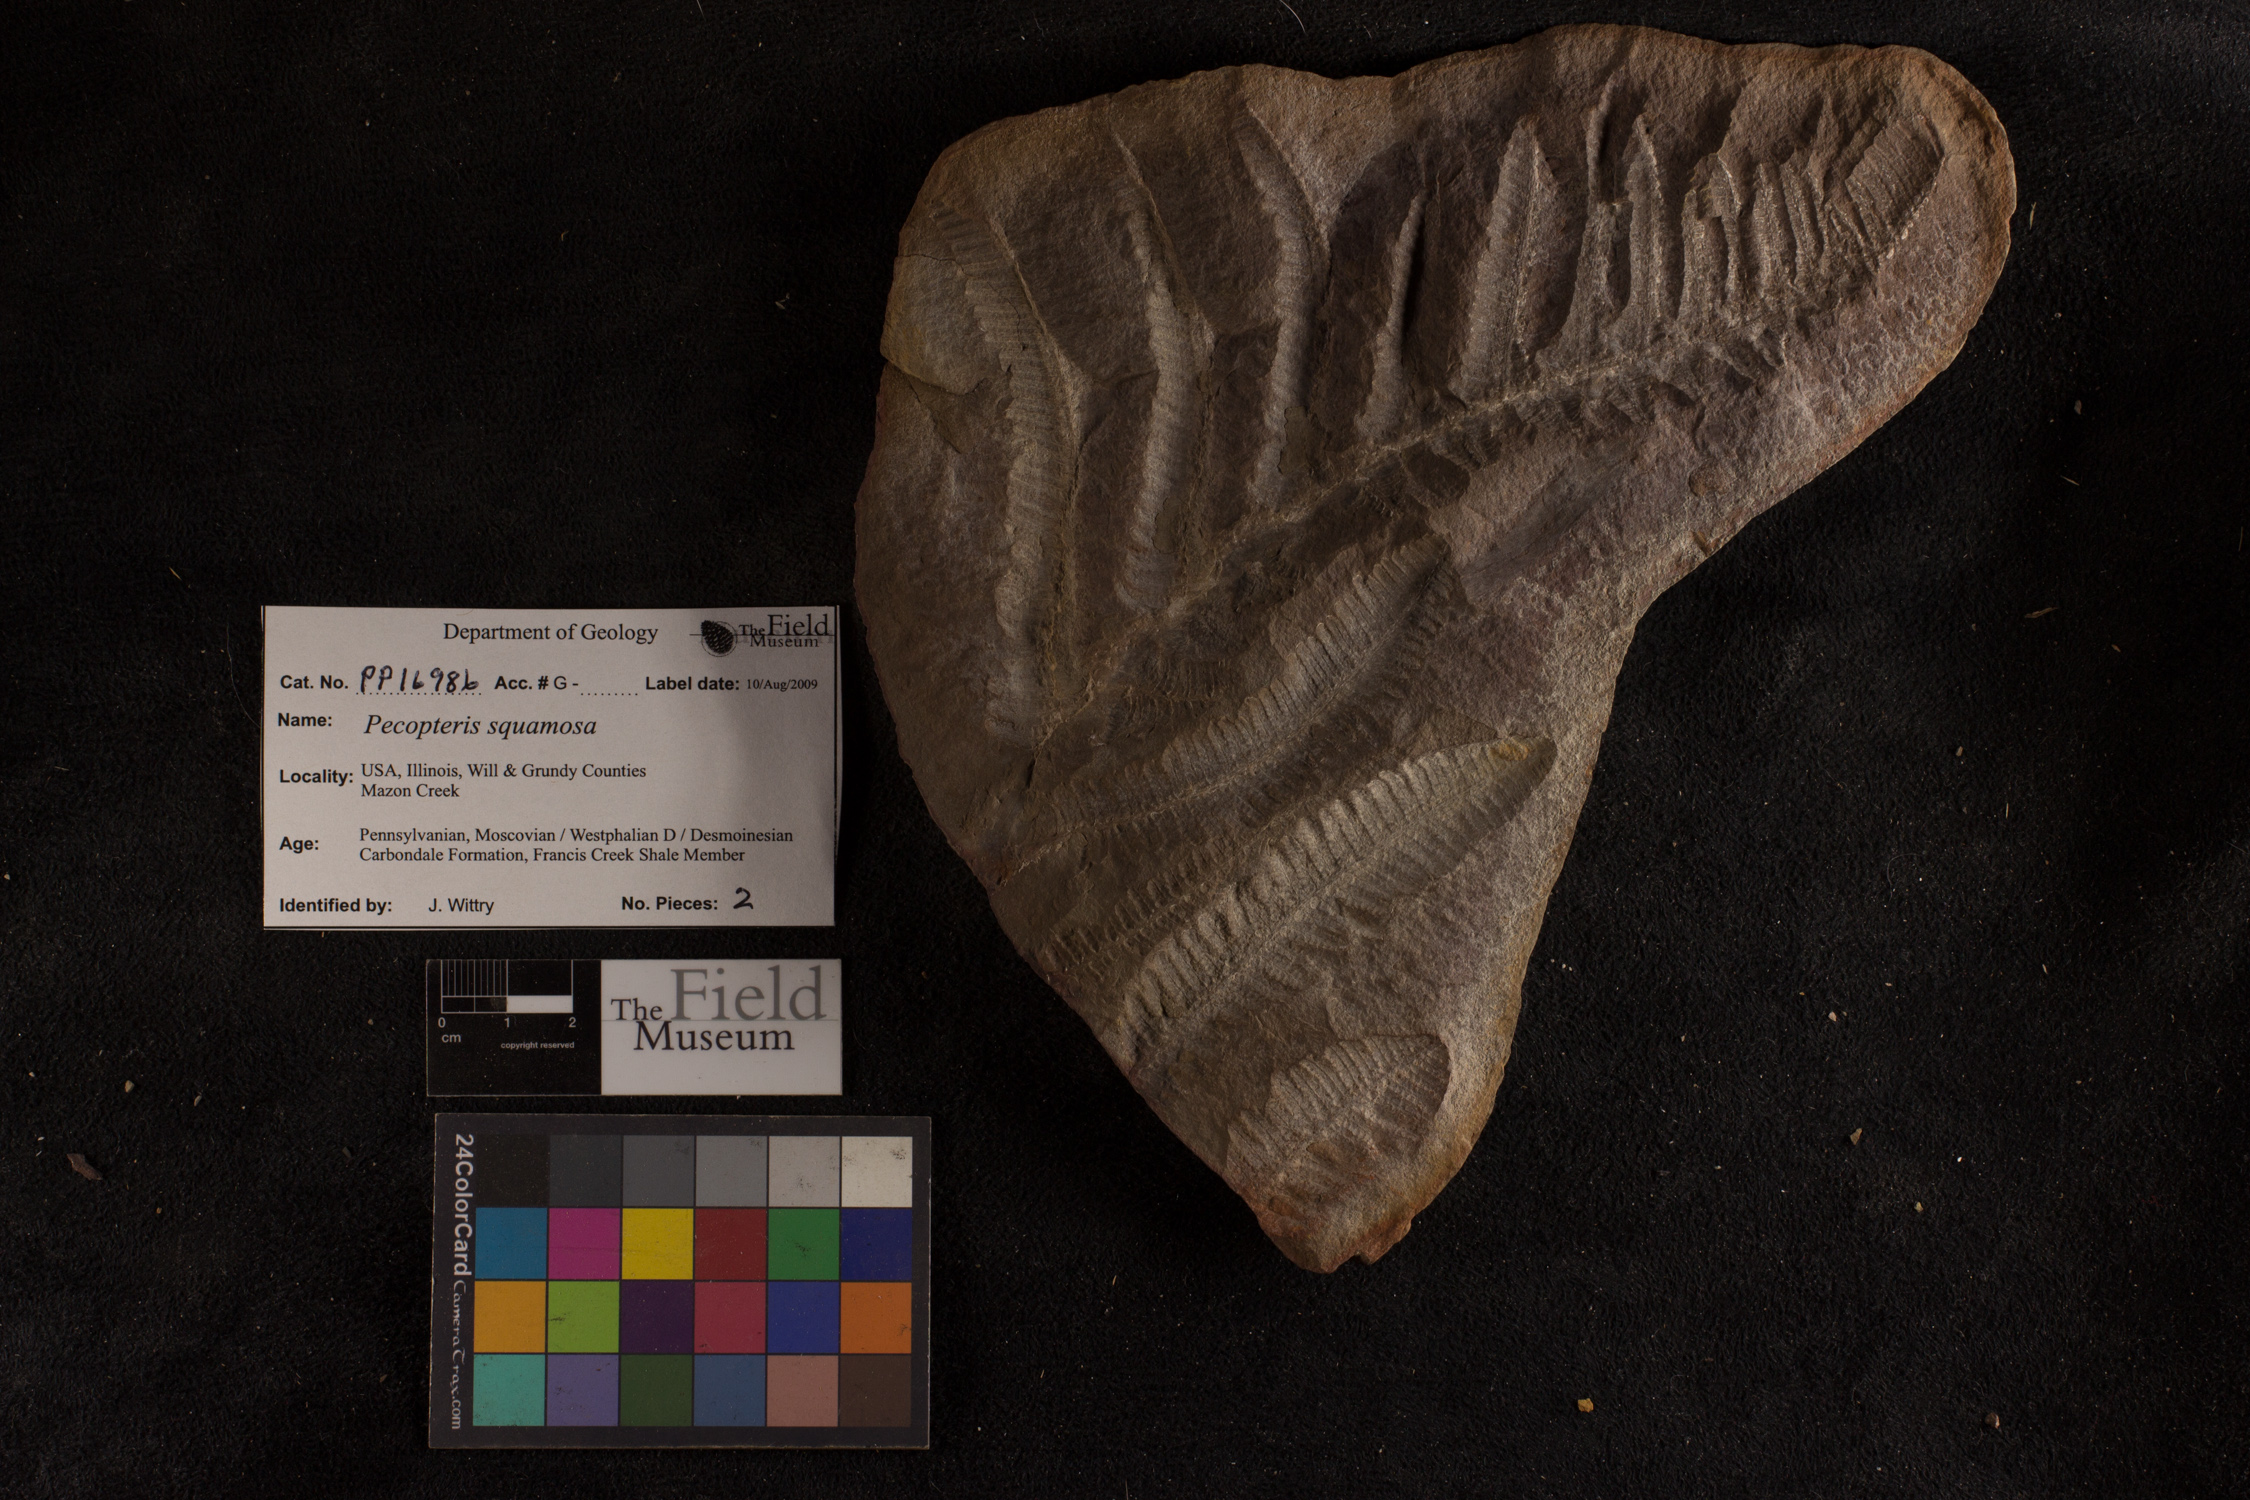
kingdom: Plantae
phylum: Tracheophyta
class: Polypodiopsida
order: Marattiales
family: Asterothecaceae
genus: Pecopteris
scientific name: Pecopteris
